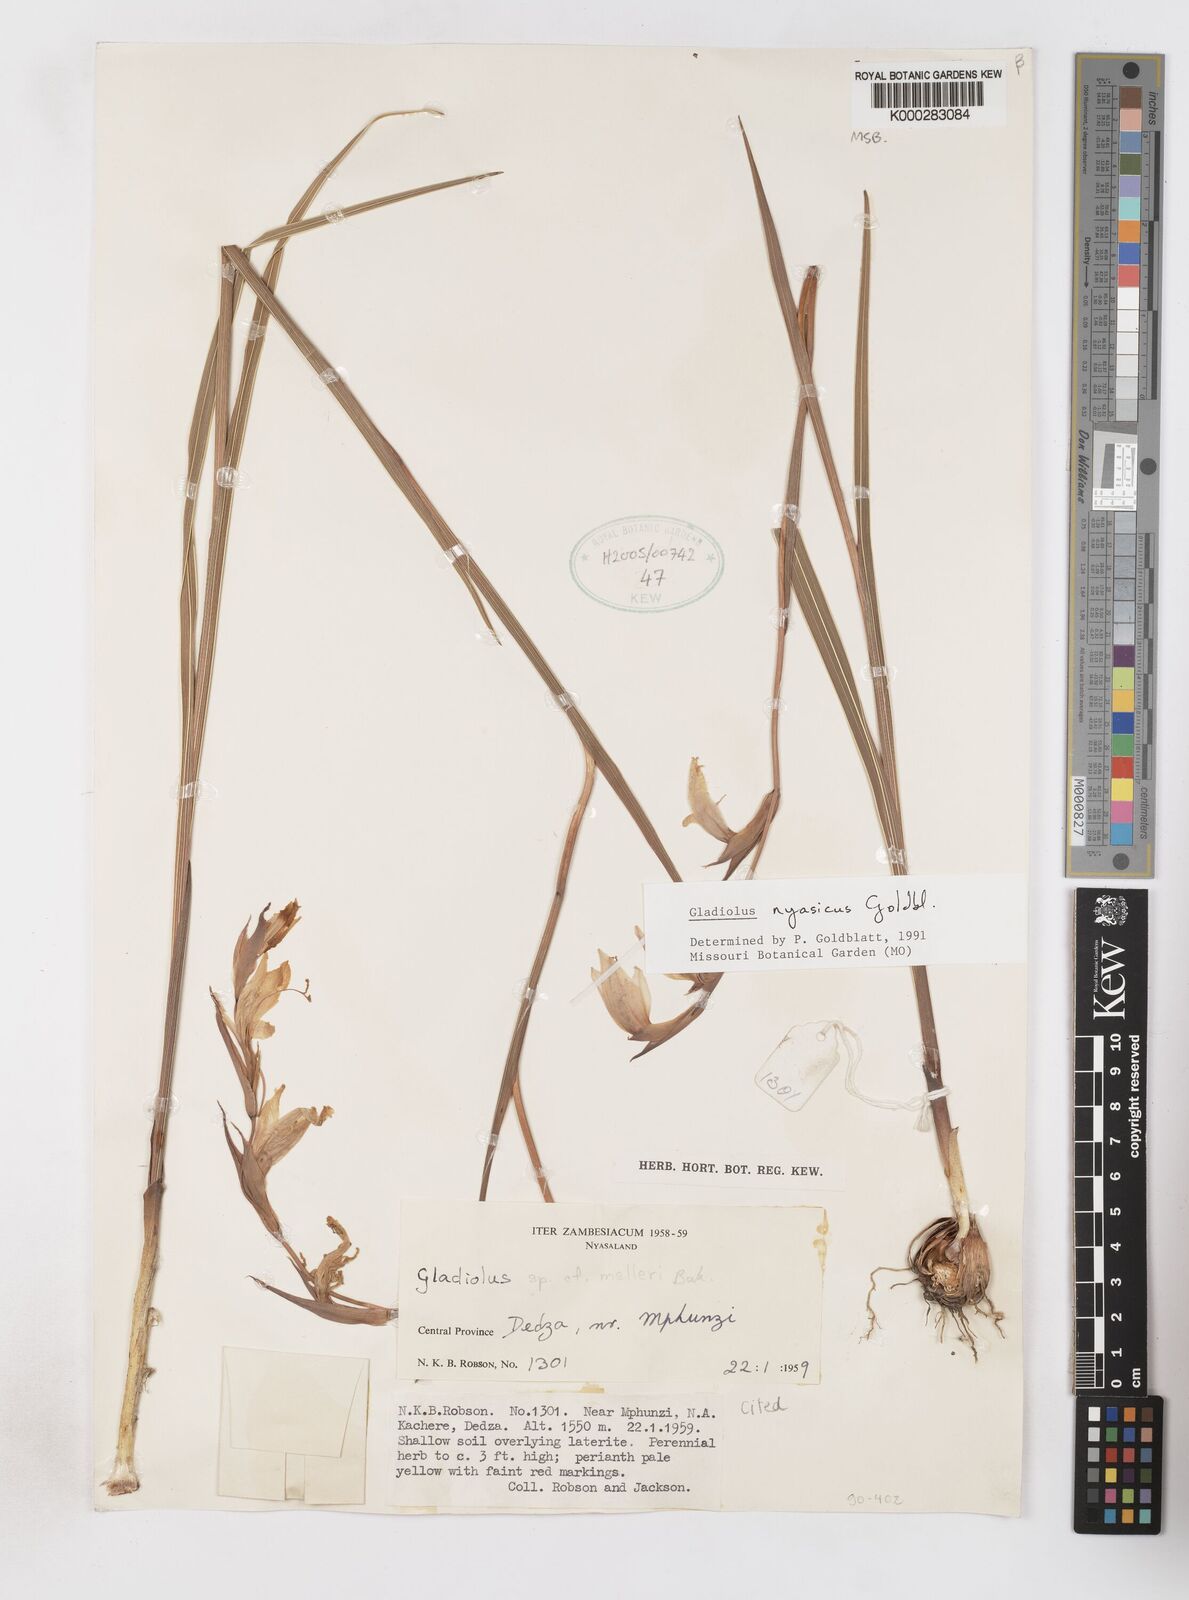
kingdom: Plantae
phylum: Tracheophyta
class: Liliopsida
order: Asparagales
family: Iridaceae
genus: Gladiolus
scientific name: Gladiolus nyasicus
